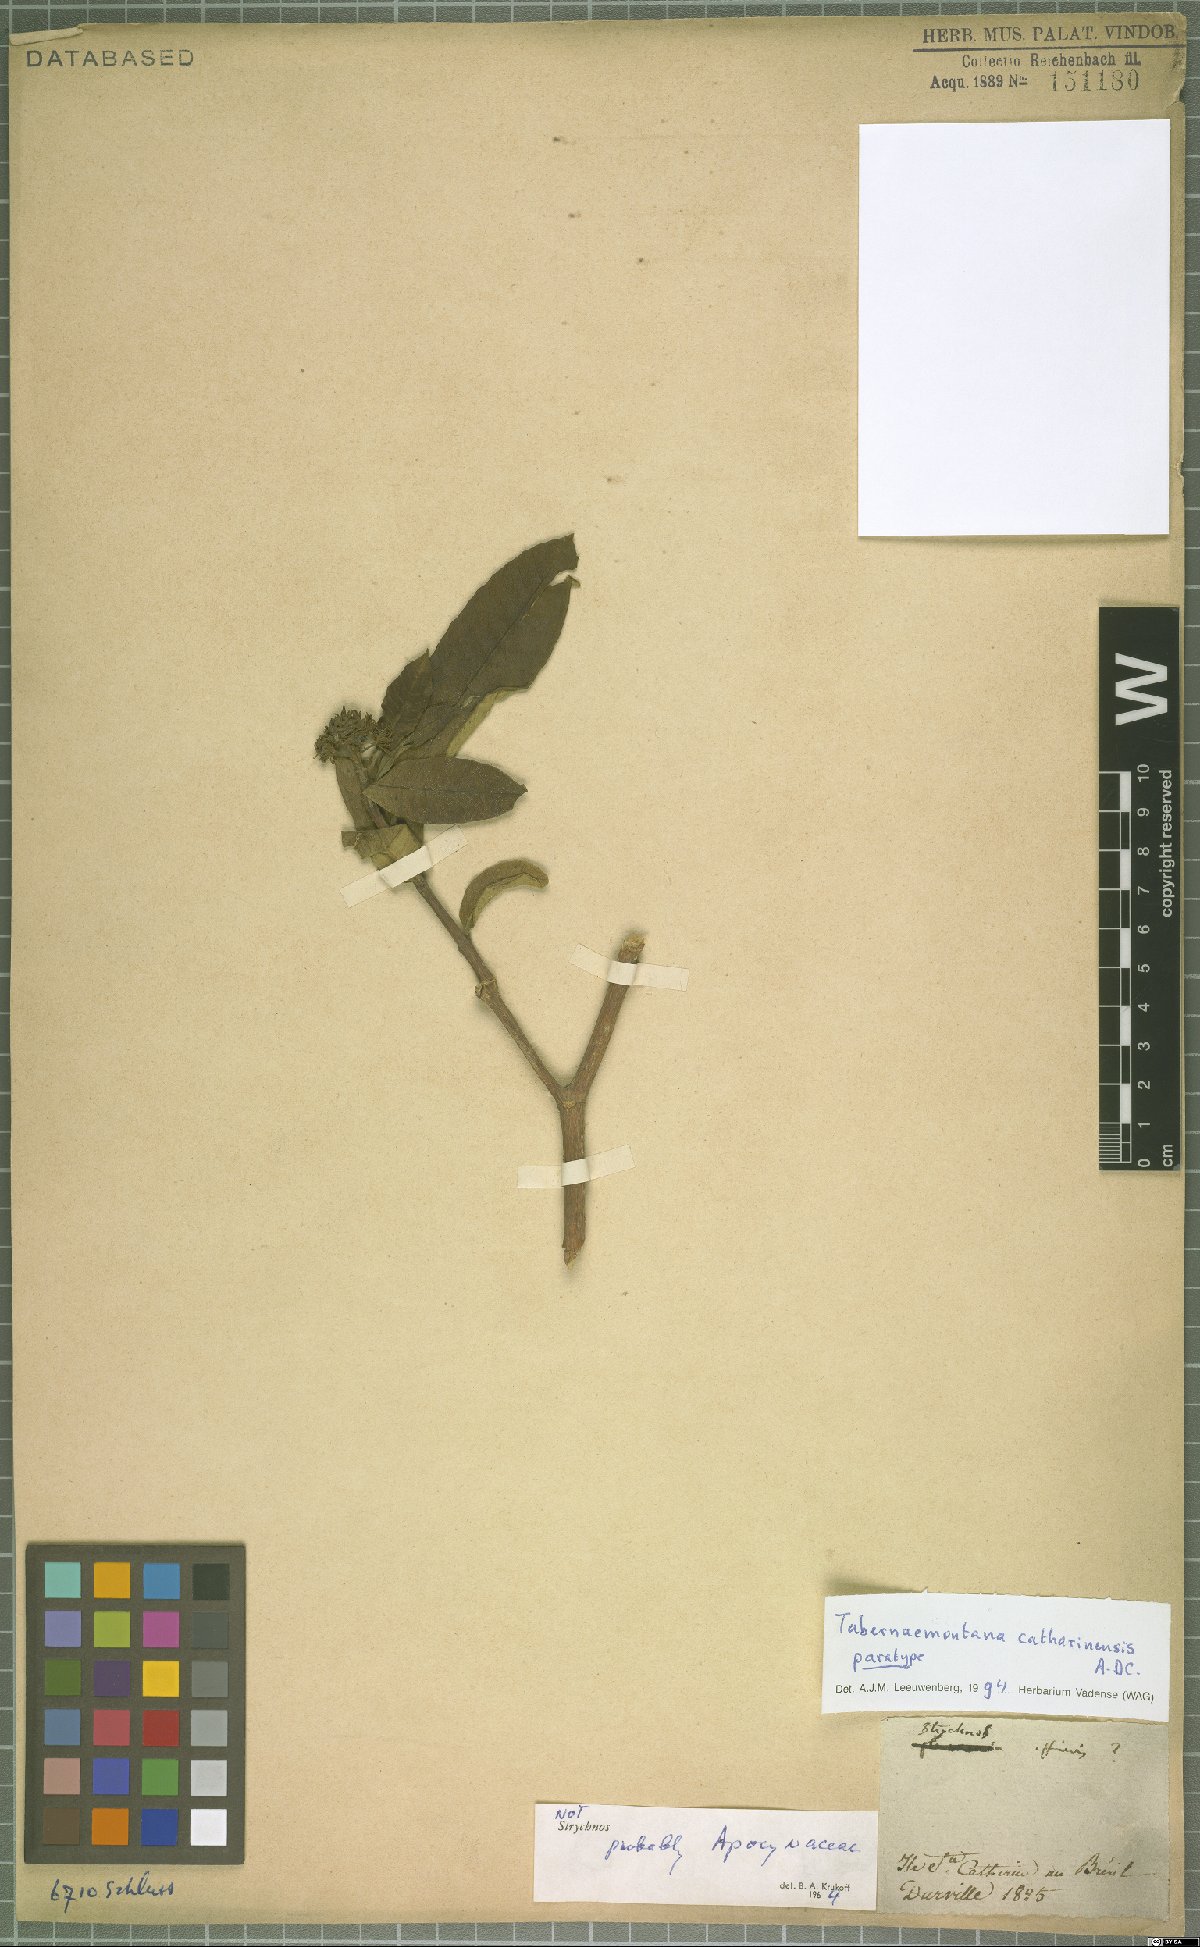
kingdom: Plantae
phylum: Tracheophyta
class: Magnoliopsida
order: Gentianales
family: Apocynaceae
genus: Tabernaemontana
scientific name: Tabernaemontana catharinensis
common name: Pinwheel-flower
